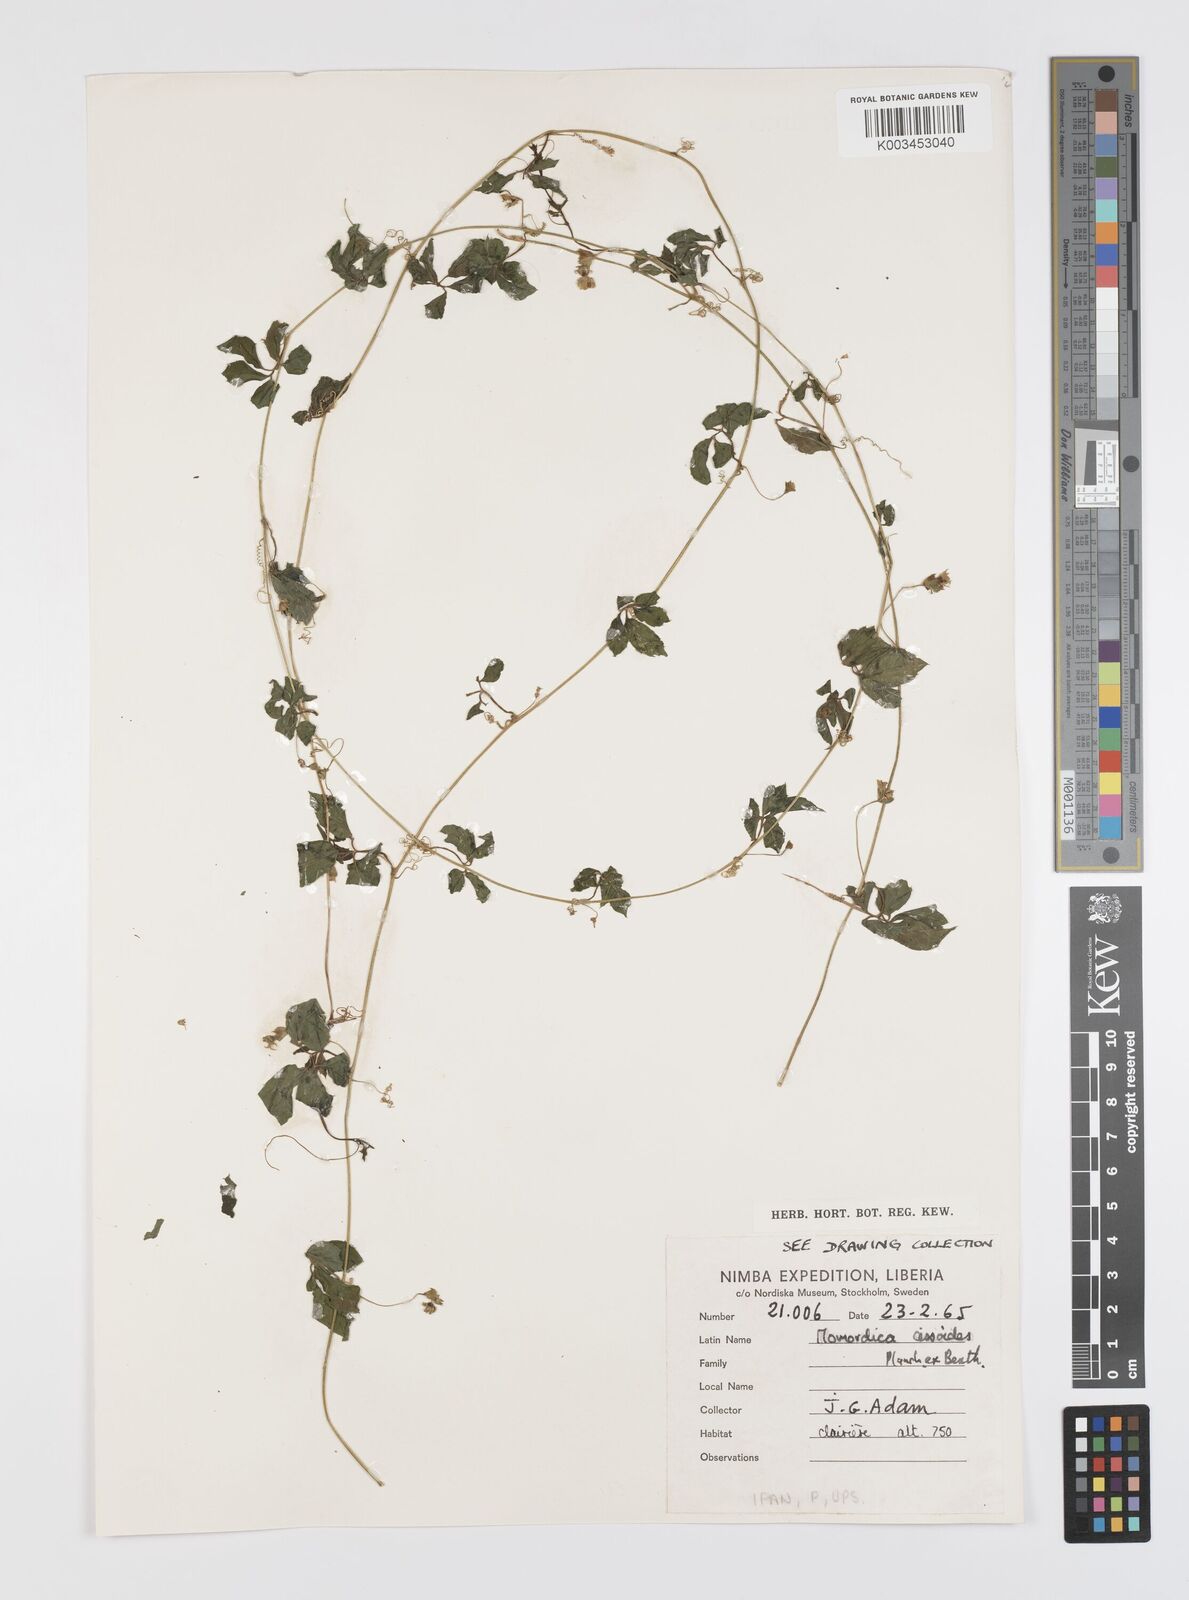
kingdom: Plantae
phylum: Tracheophyta
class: Magnoliopsida
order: Cucurbitales
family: Cucurbitaceae
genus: Momordica
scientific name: Momordica cissoides
